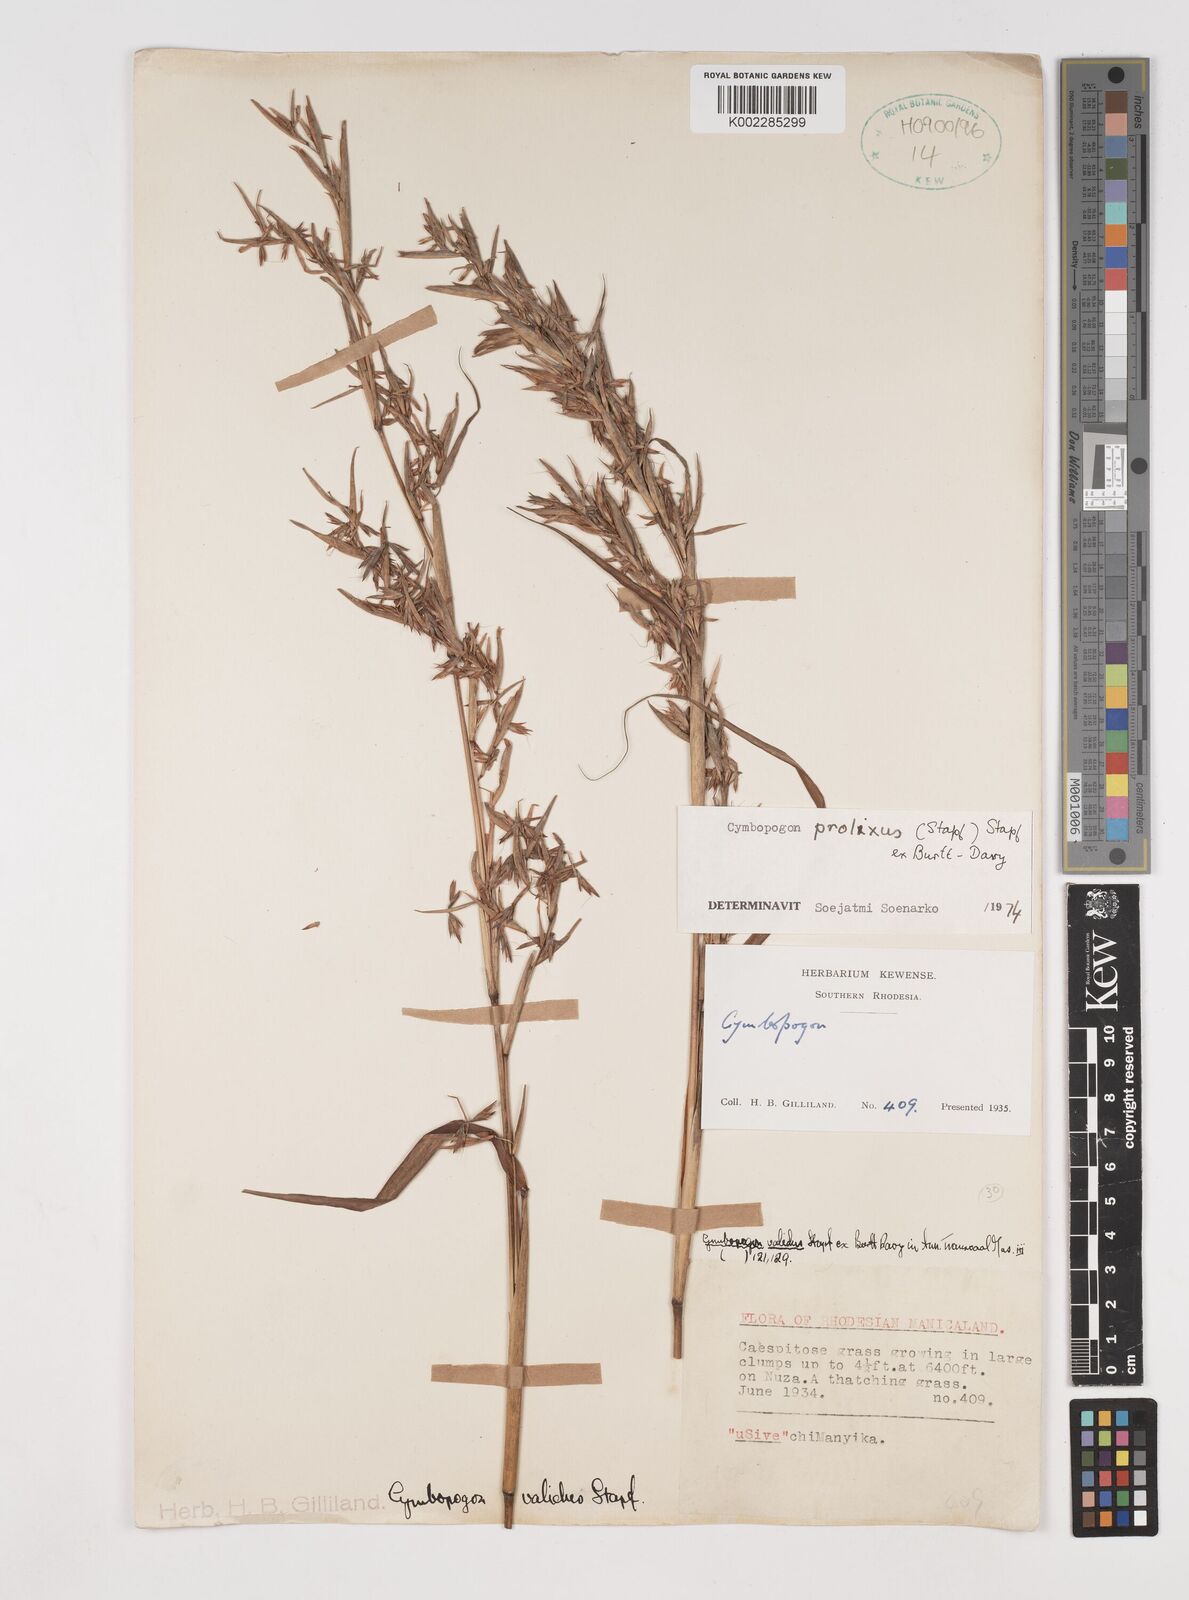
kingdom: Plantae
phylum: Tracheophyta
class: Liliopsida
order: Poales
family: Poaceae
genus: Cymbopogon
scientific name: Cymbopogon nardus
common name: Giant turpentine grass
